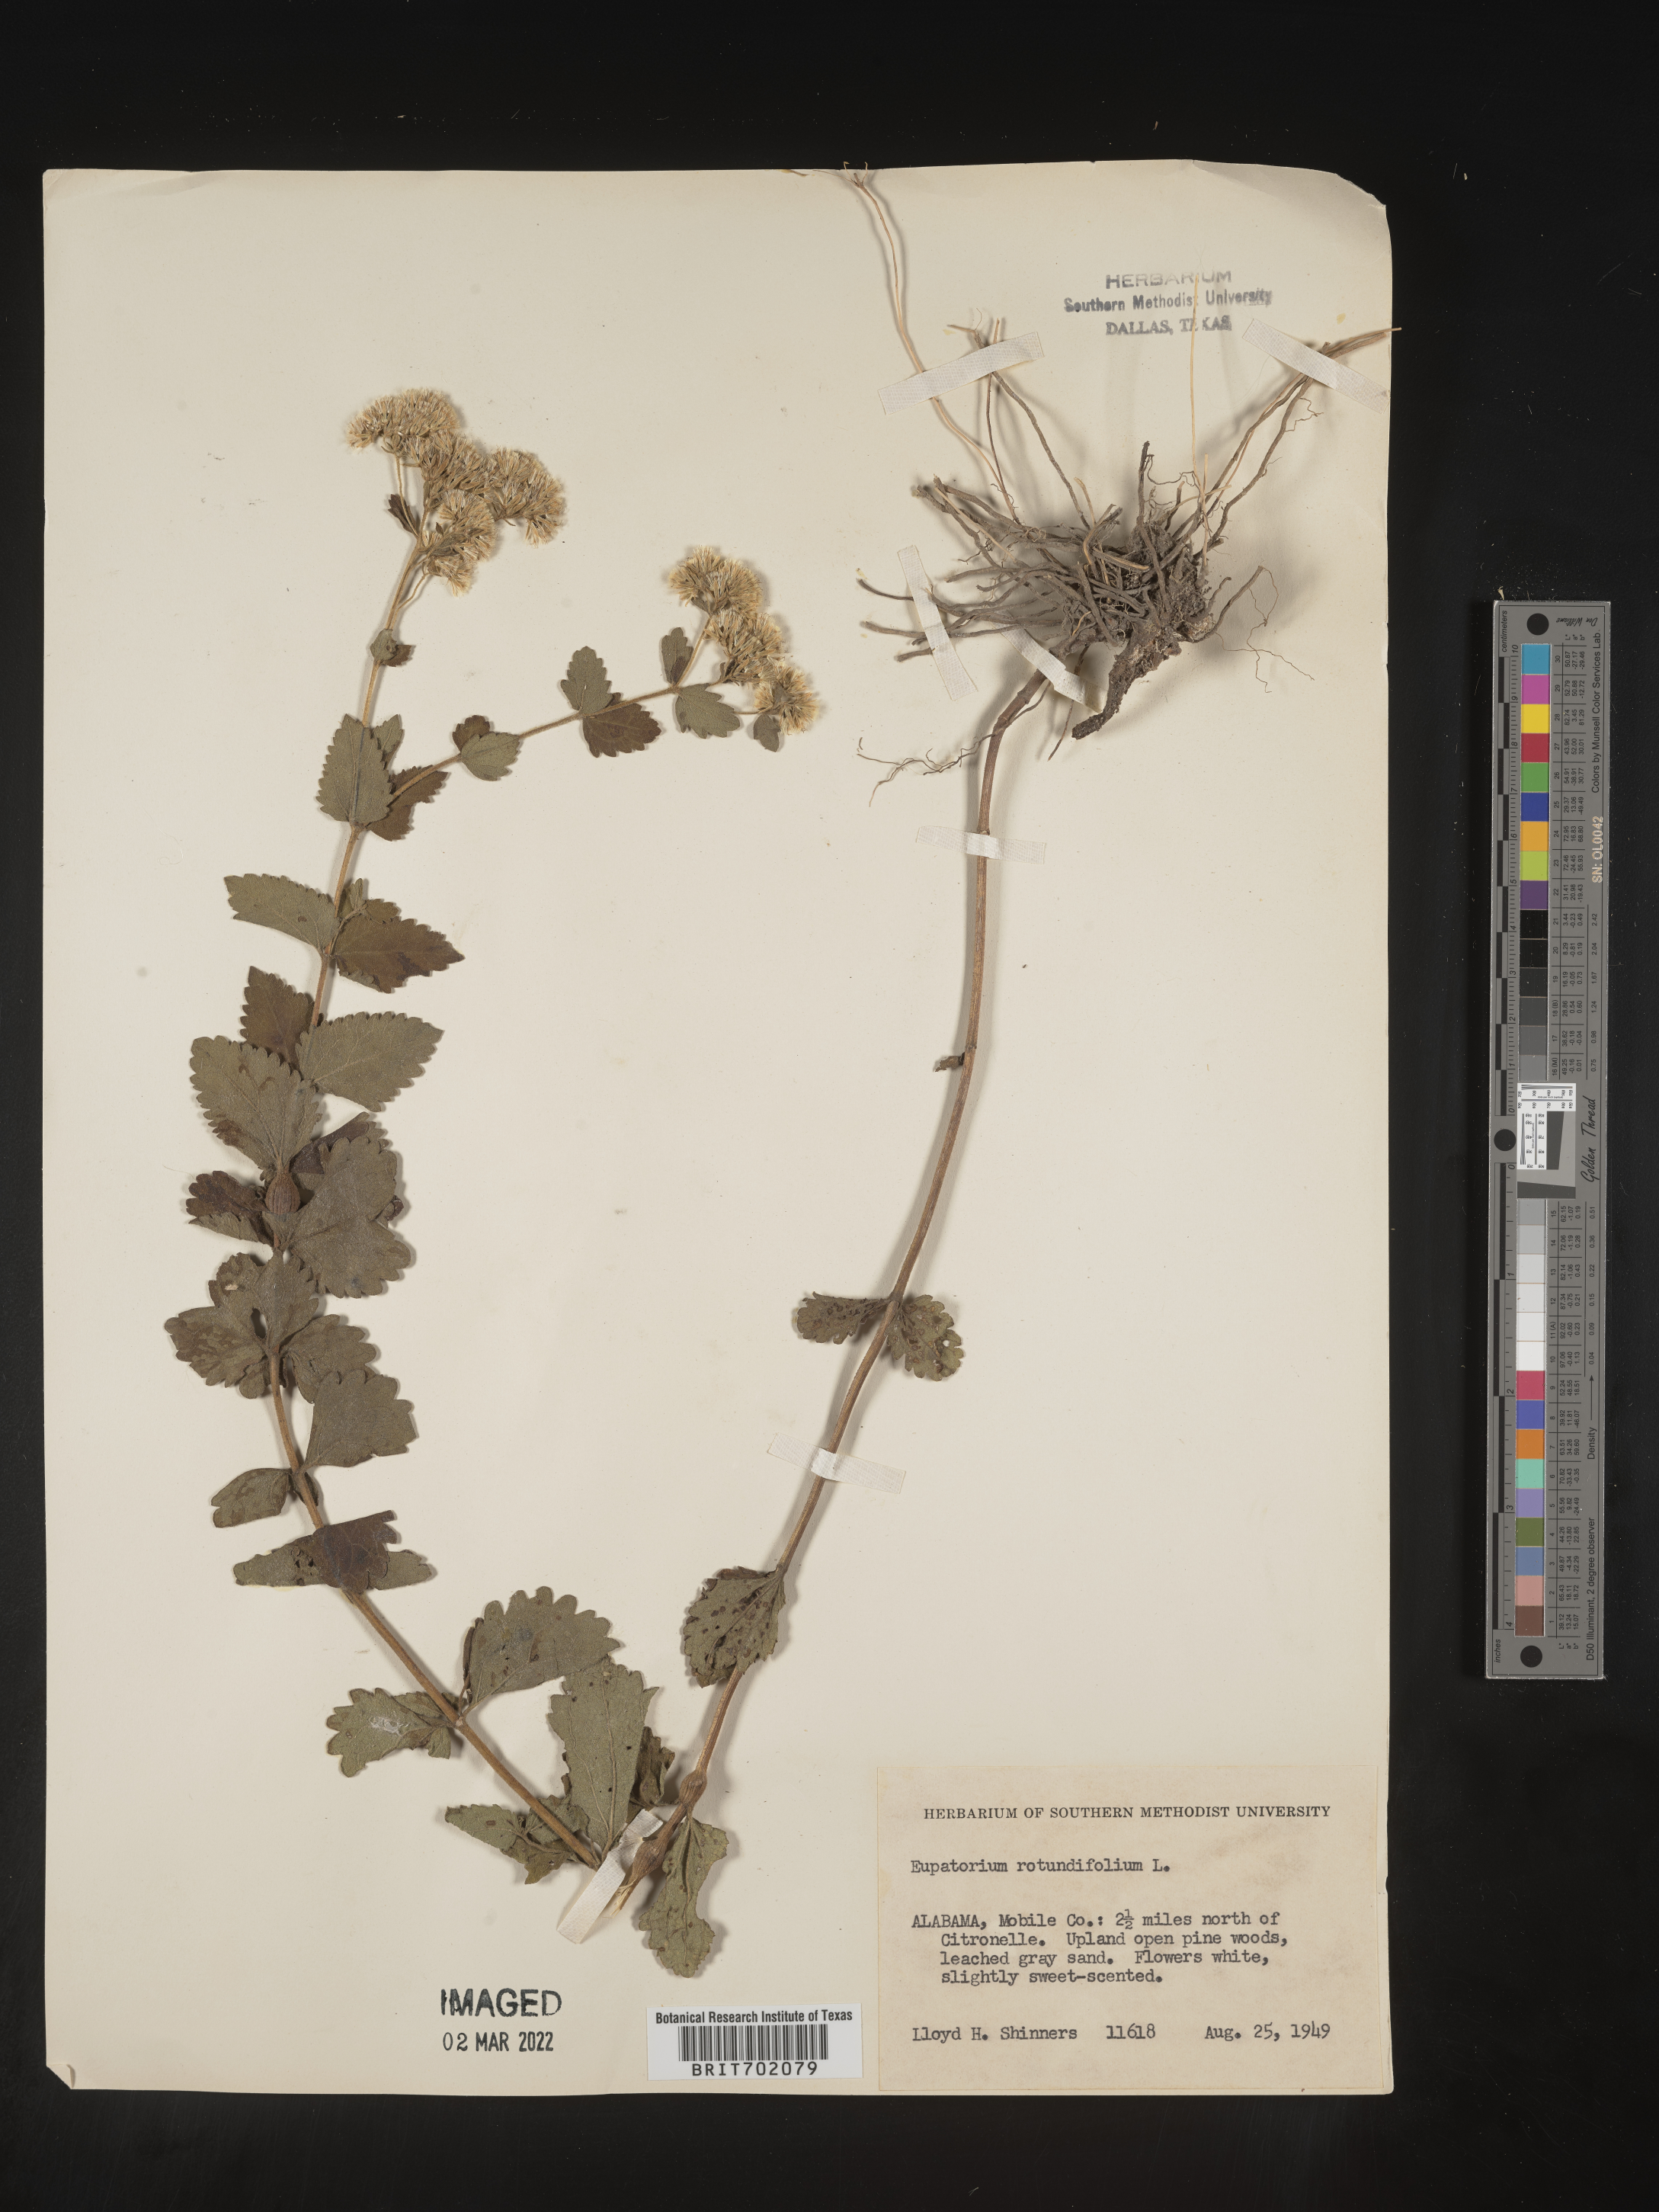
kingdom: Plantae
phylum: Tracheophyta
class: Magnoliopsida
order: Asterales
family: Asteraceae
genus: Eupatorium
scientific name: Eupatorium rotundifolium
